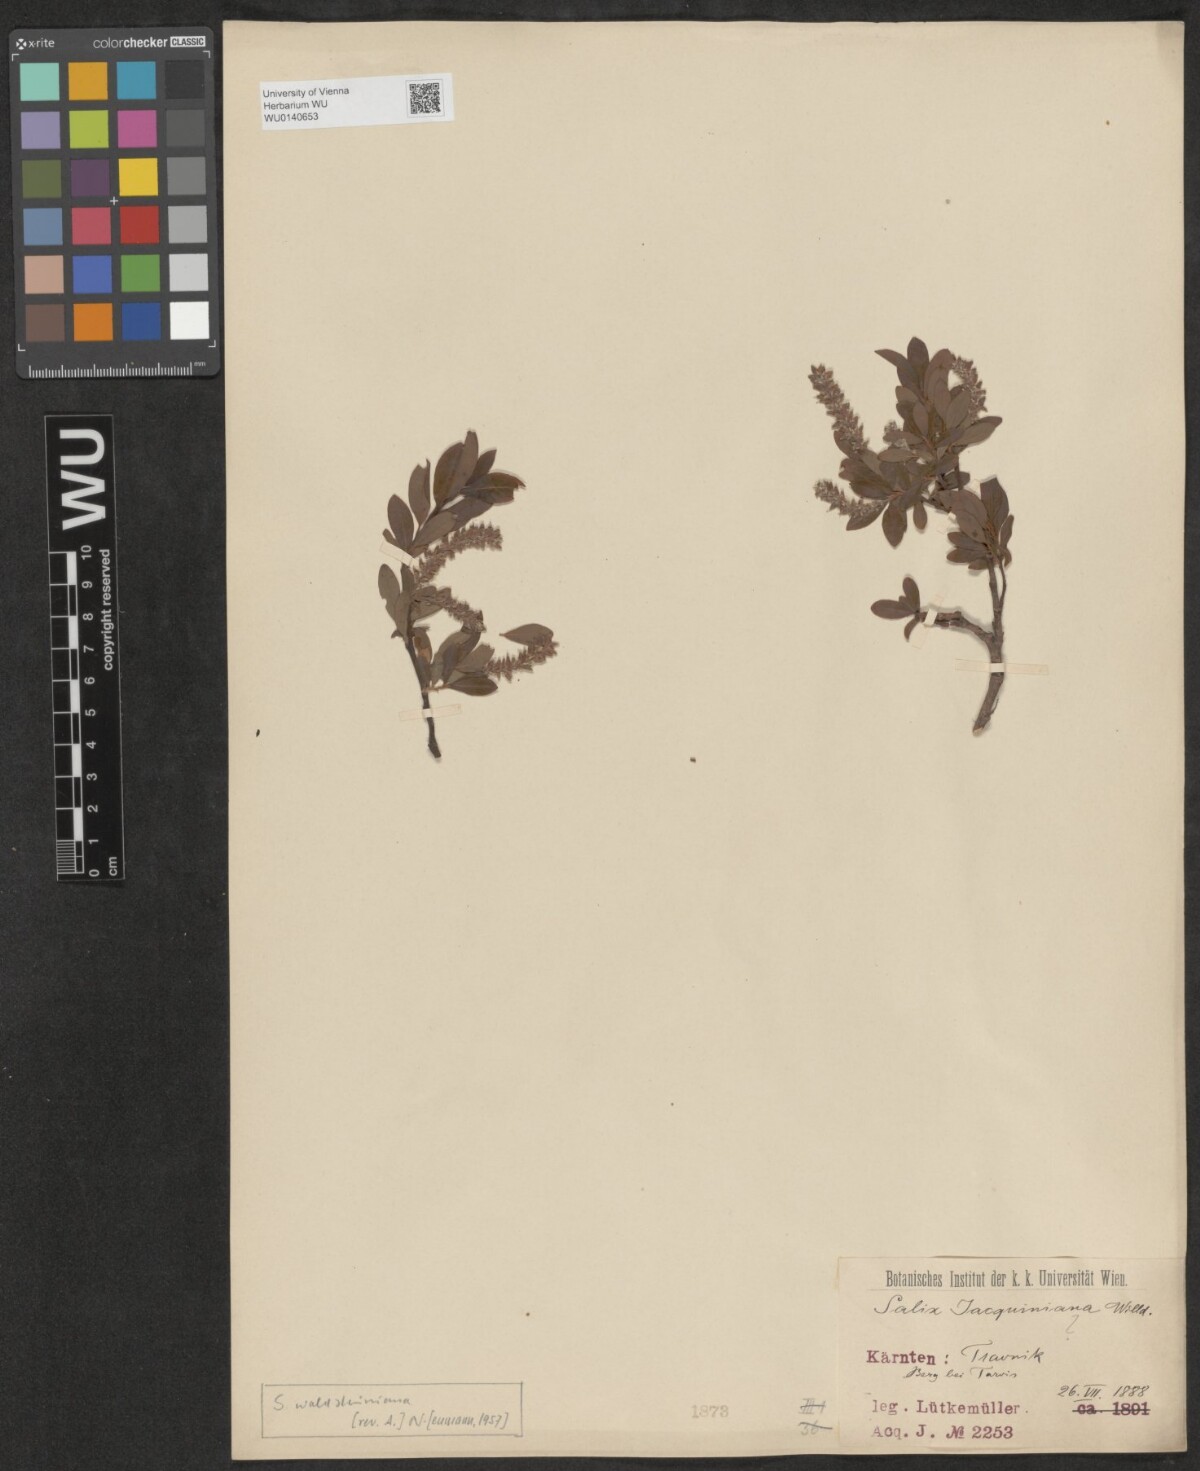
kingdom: Plantae
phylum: Tracheophyta
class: Magnoliopsida
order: Malpighiales
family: Salicaceae
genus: Salix
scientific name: Salix waldsteiniana
